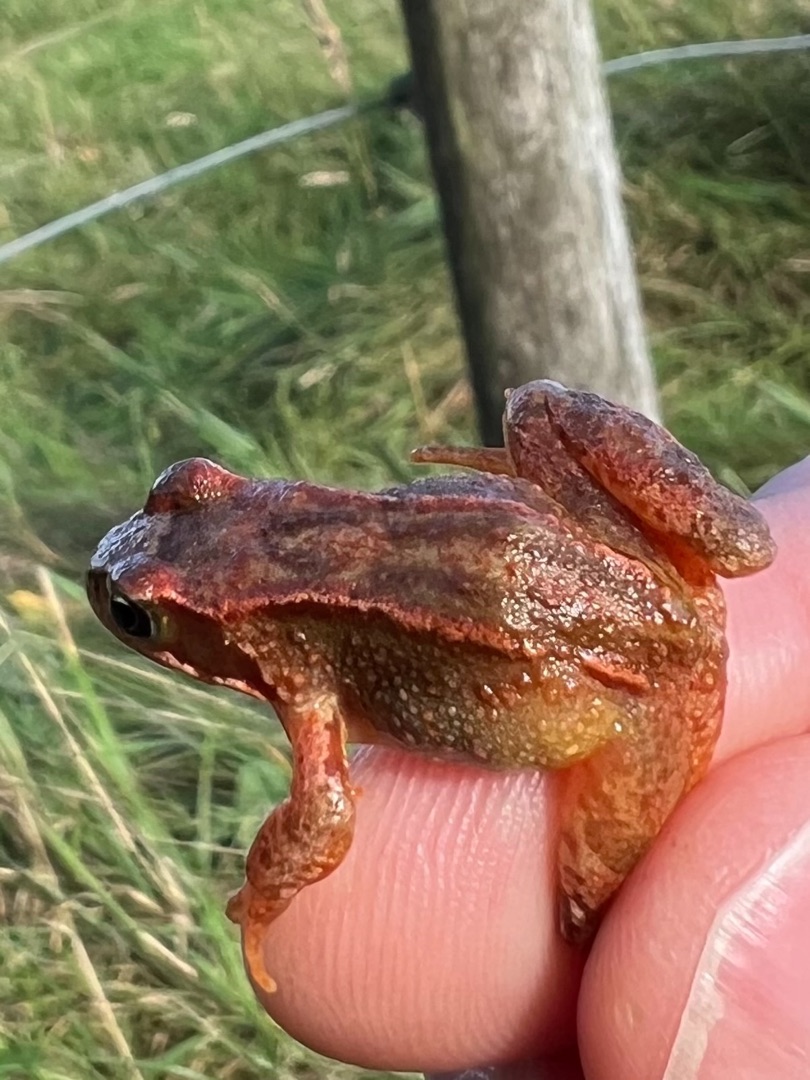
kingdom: Animalia
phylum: Chordata
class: Amphibia
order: Anura
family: Ranidae
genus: Rana
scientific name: Rana temporaria
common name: Butsnudet frø
